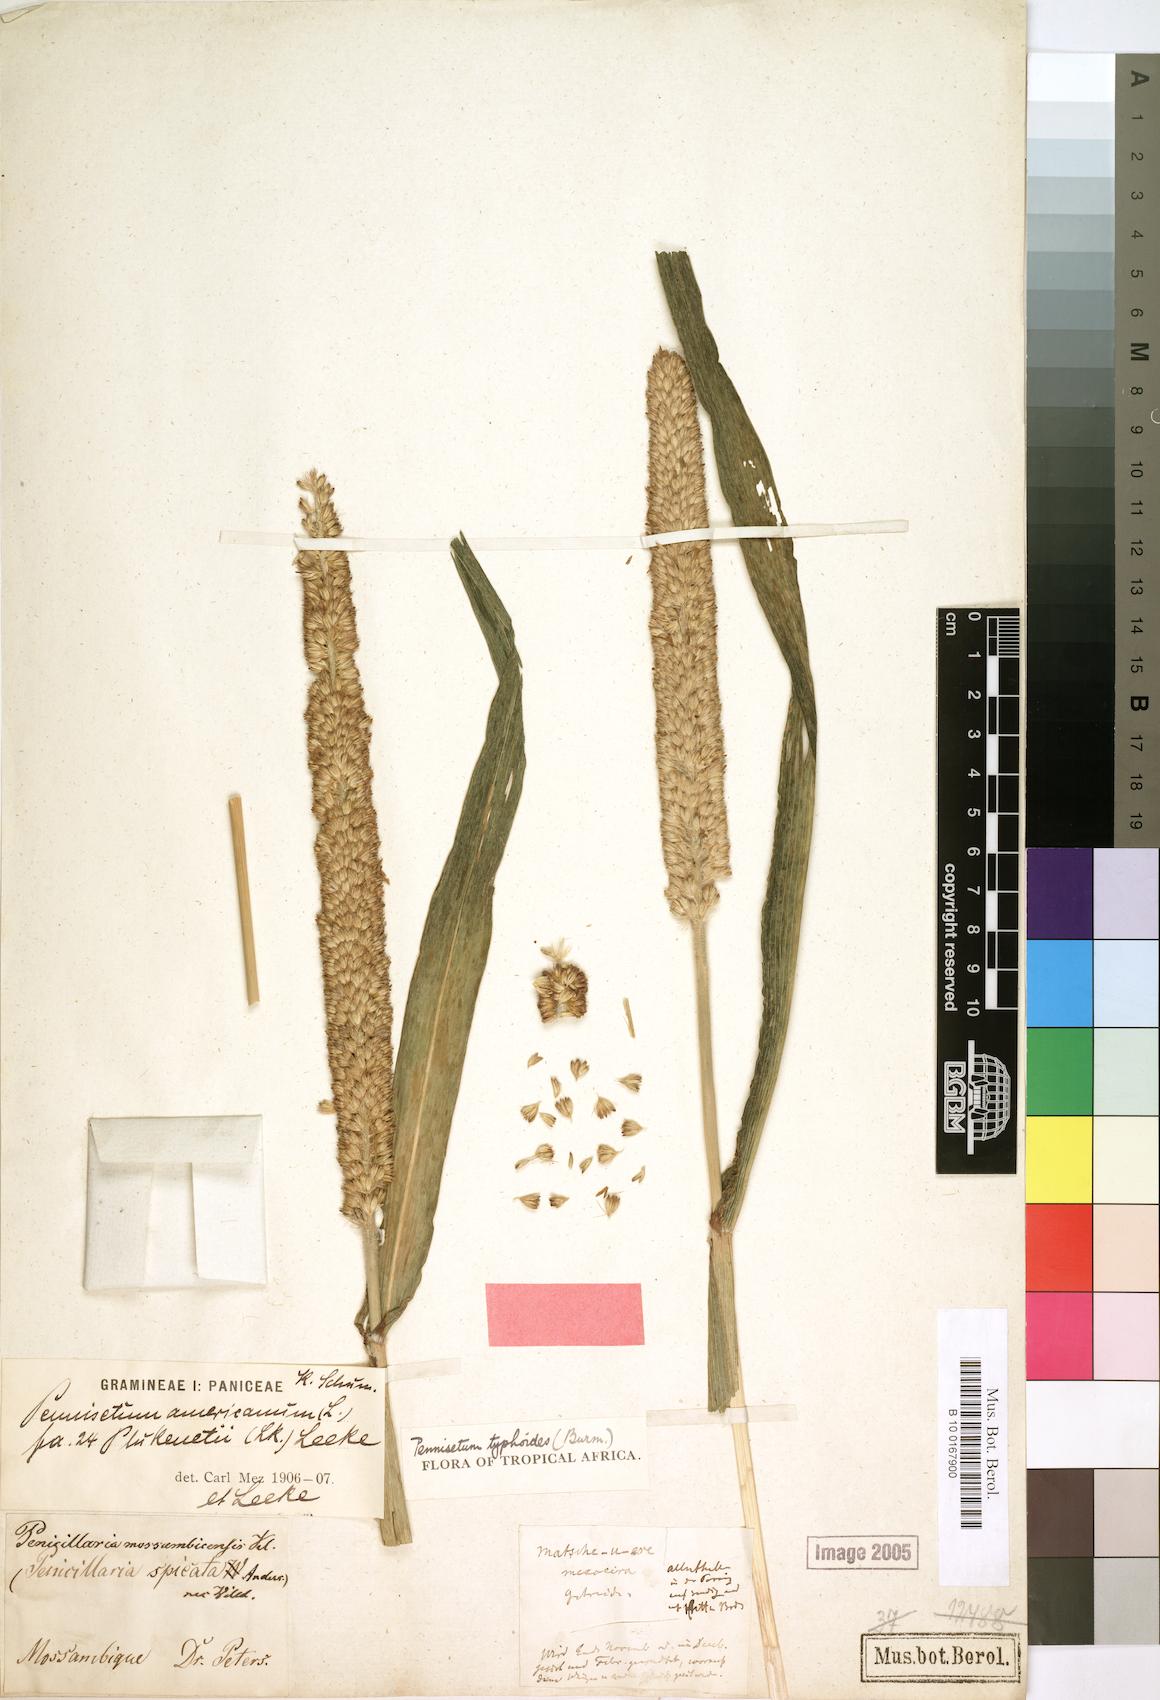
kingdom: Plantae
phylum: Tracheophyta
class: Liliopsida
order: Poales
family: Poaceae
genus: Cenchrus
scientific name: Cenchrus americanus
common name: Pearl millet
